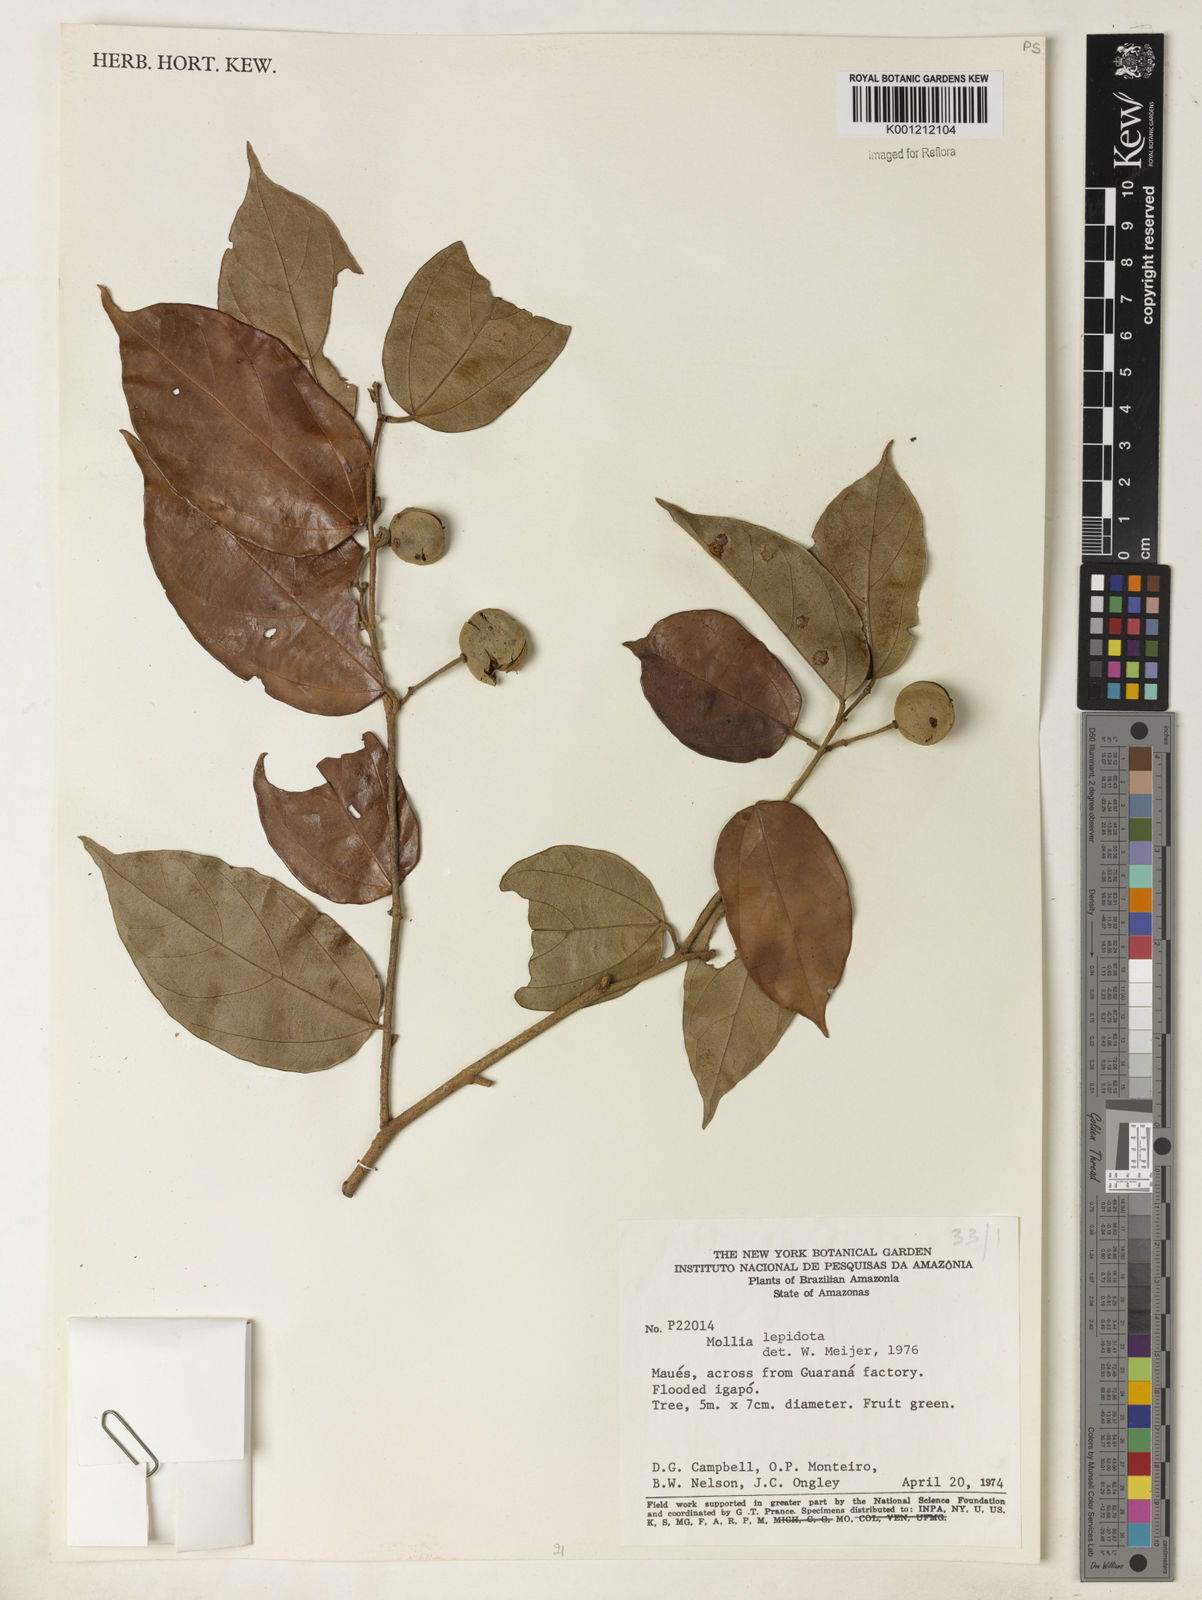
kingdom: Plantae
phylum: Tracheophyta
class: Magnoliopsida
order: Malvales
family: Malvaceae
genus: Mollia
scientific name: Mollia lepidota
